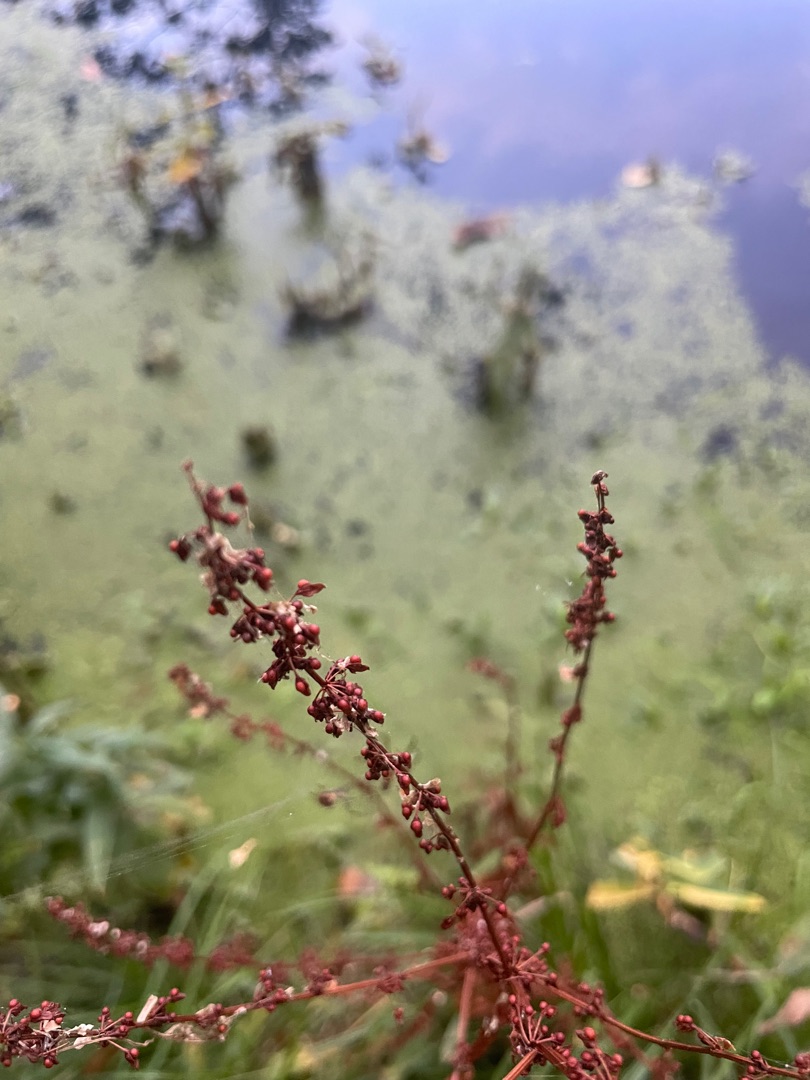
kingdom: Plantae
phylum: Tracheophyta
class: Magnoliopsida
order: Caryophyllales
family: Polygonaceae
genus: Rumex
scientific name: Rumex sanguineus
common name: Skov-skræppe
